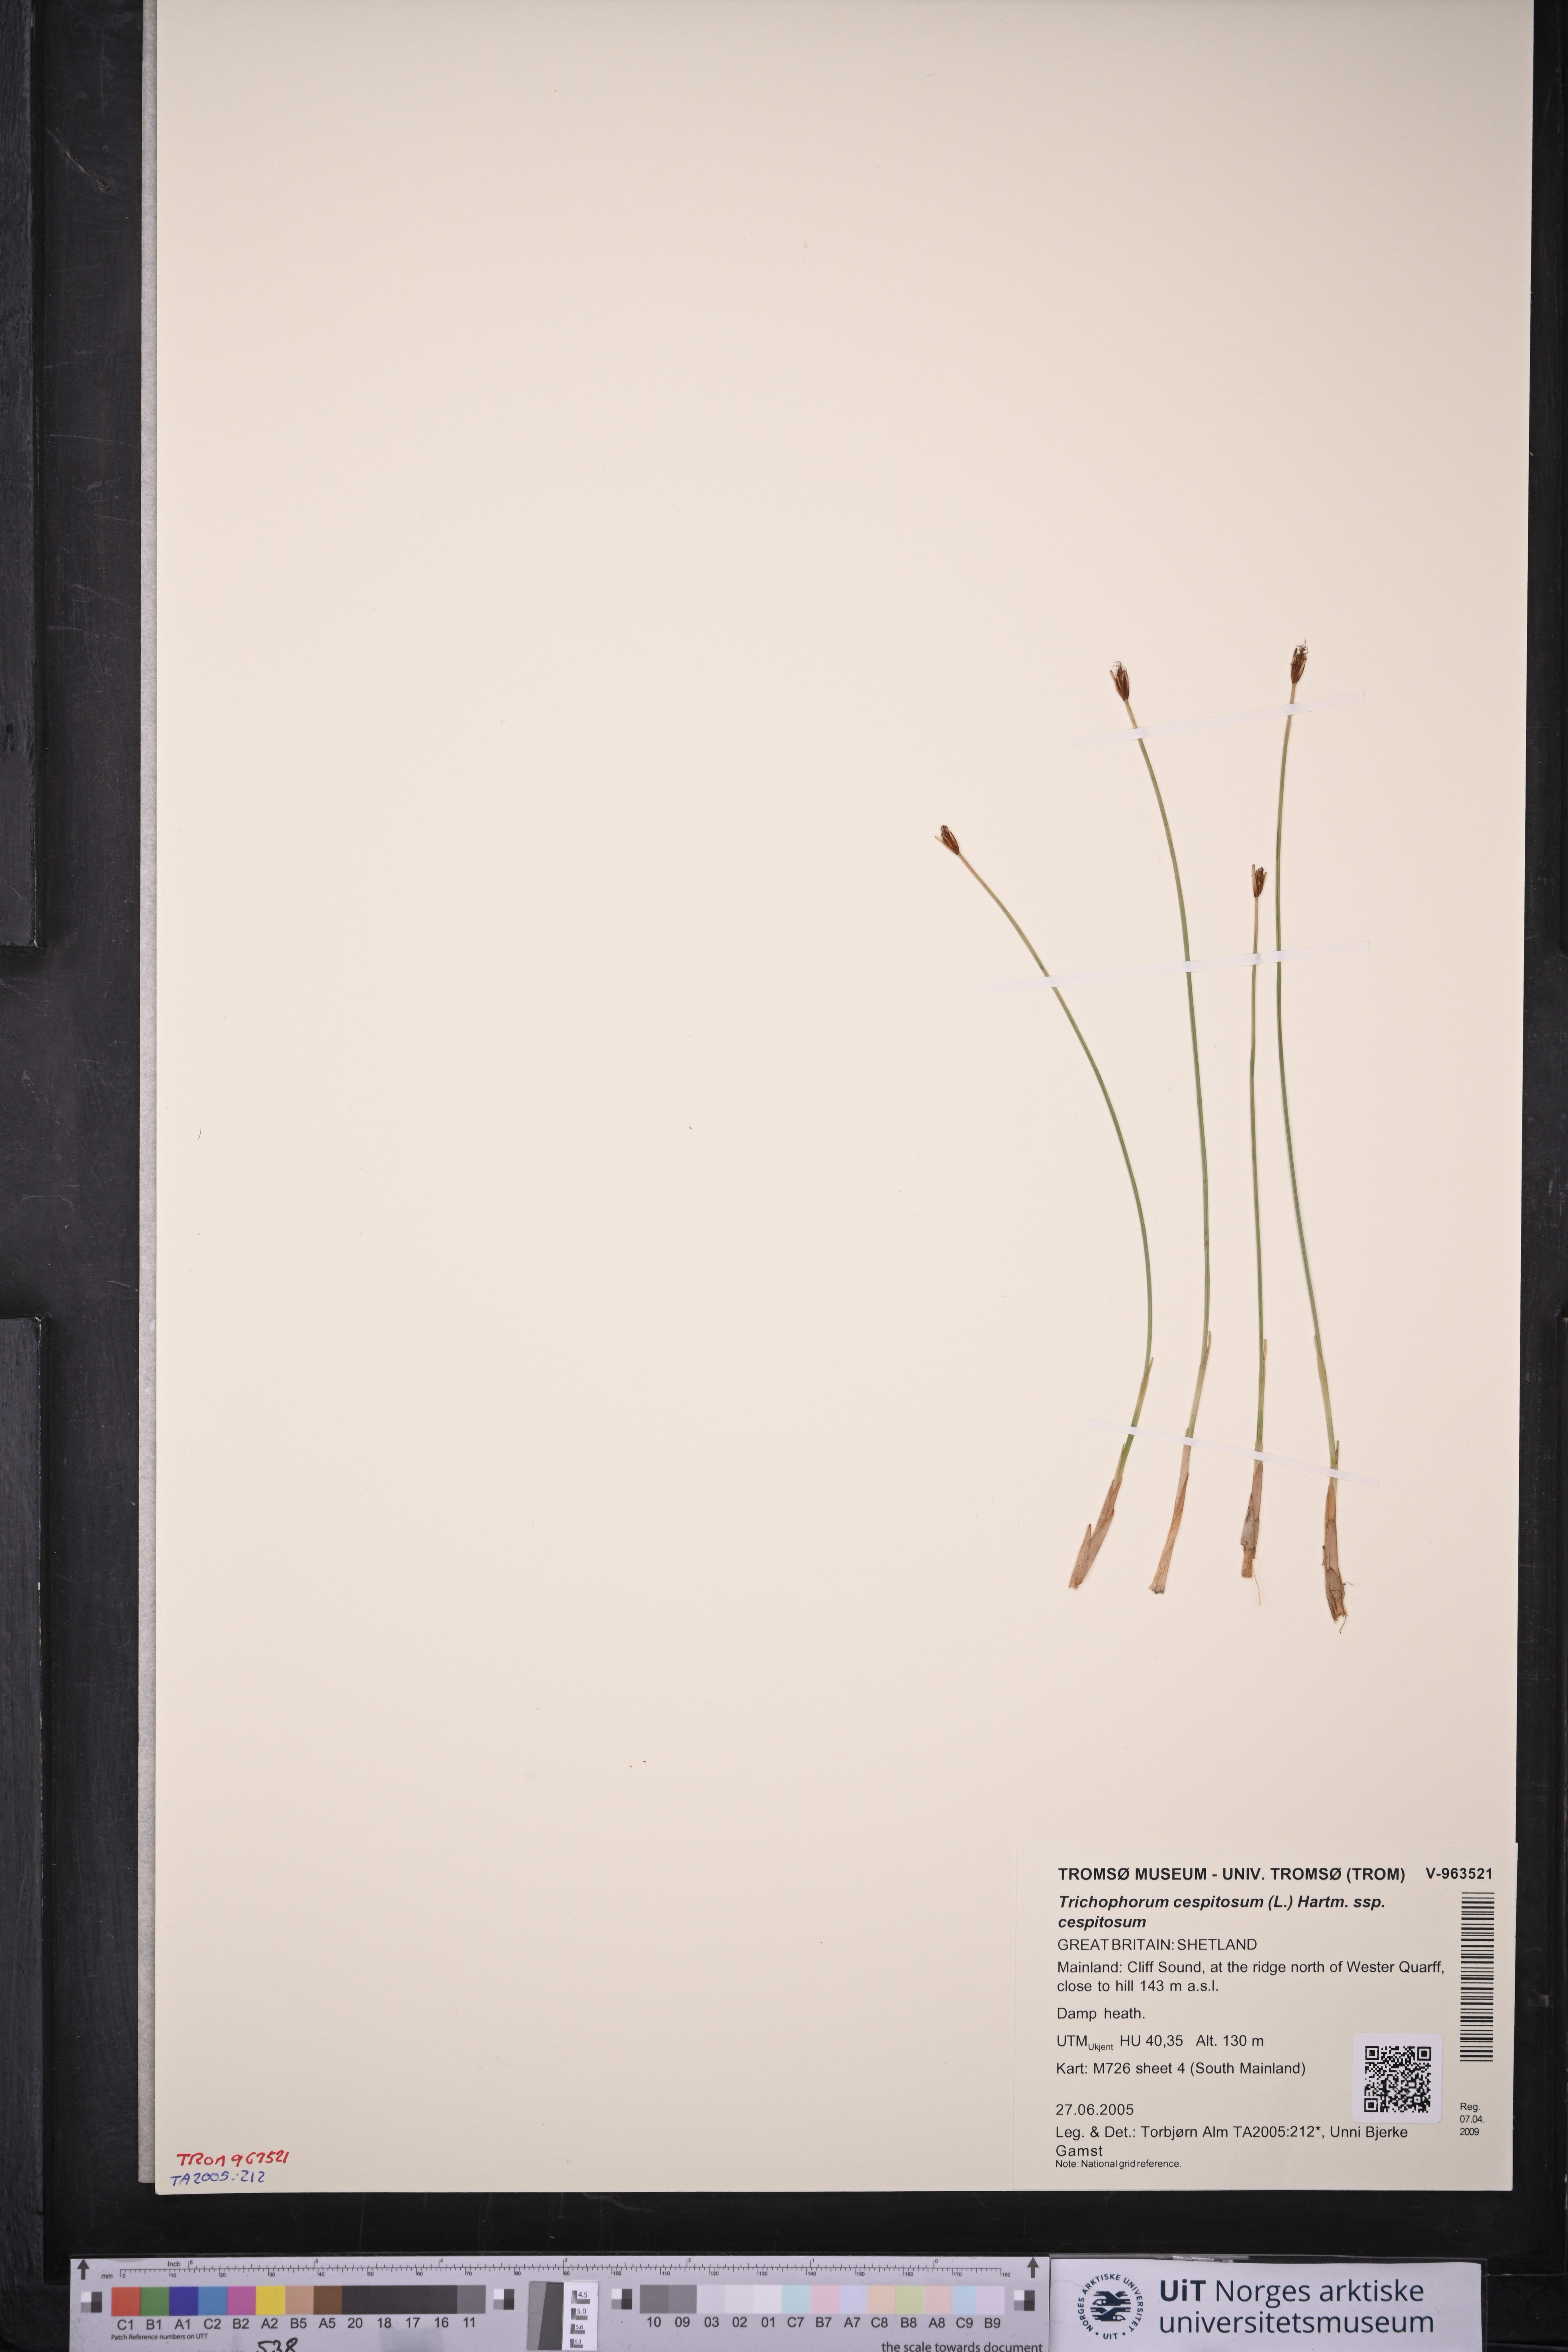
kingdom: Plantae
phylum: Tracheophyta
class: Liliopsida
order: Poales
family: Cyperaceae
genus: Trichophorum
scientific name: Trichophorum cespitosum
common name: Cespitose bulrush
